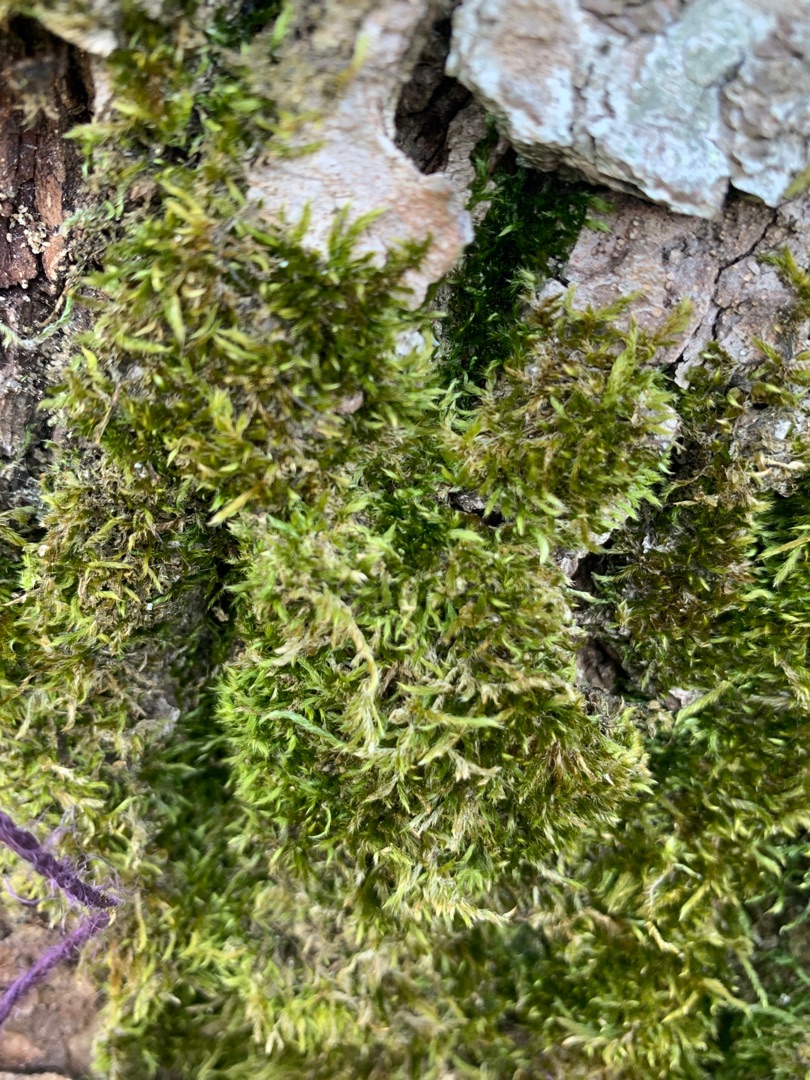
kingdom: Plantae
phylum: Bryophyta
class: Bryopsida
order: Hypnales
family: Hypnaceae
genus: Hypnum
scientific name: Hypnum cupressiforme
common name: Almindelig cypresmos
